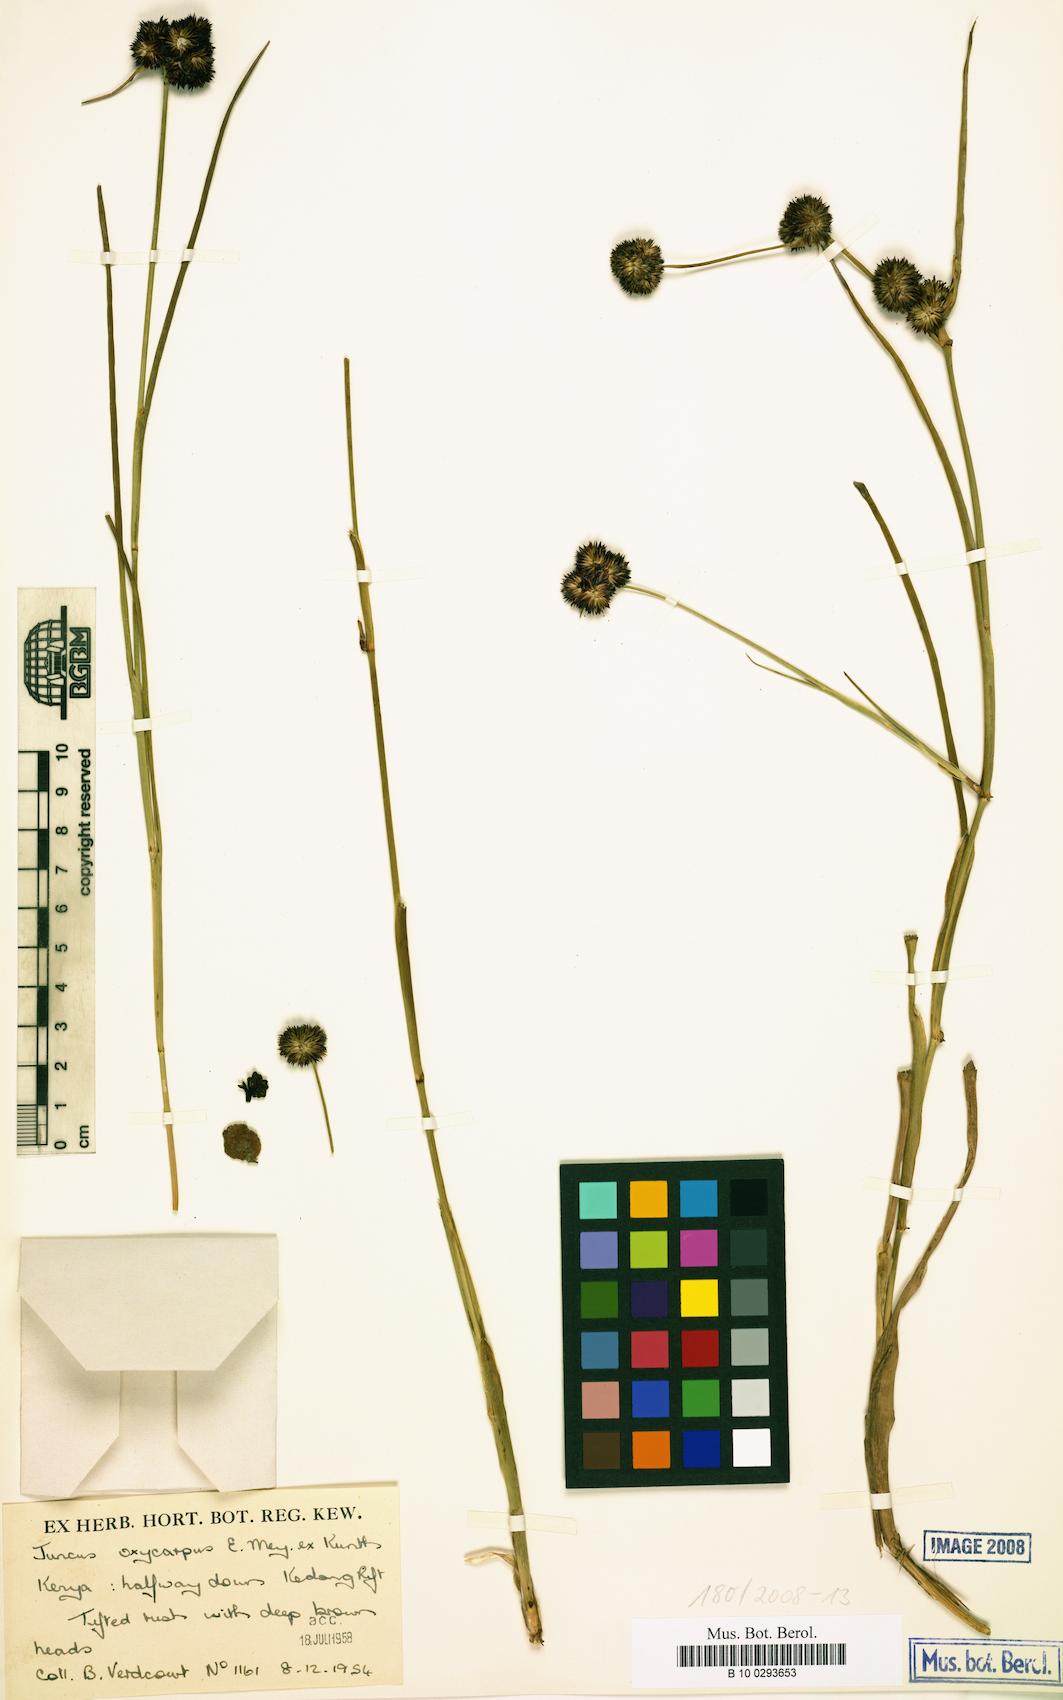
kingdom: Plantae
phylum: Tracheophyta
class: Liliopsida
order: Poales
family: Juncaceae
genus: Juncus
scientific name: Juncus oxycarpus
